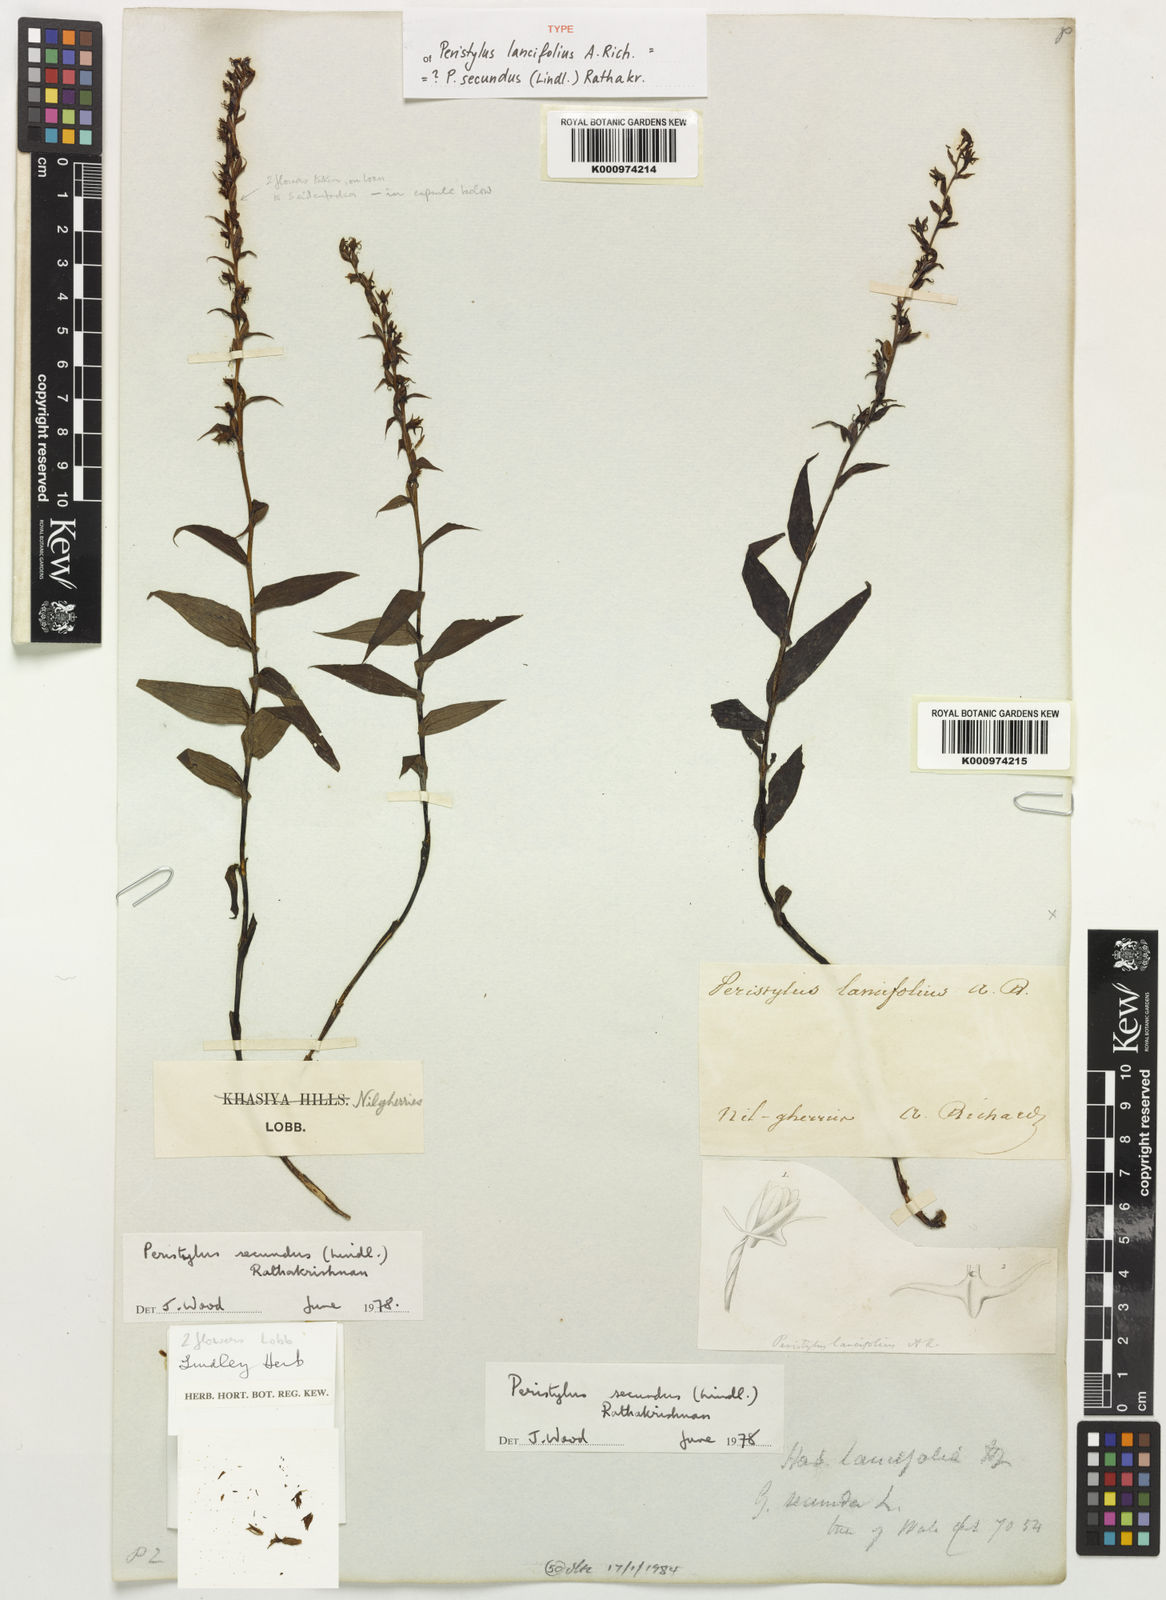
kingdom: Plantae
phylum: Tracheophyta
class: Liliopsida
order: Asparagales
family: Orchidaceae
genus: Peristylus
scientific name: Peristylus secundus
